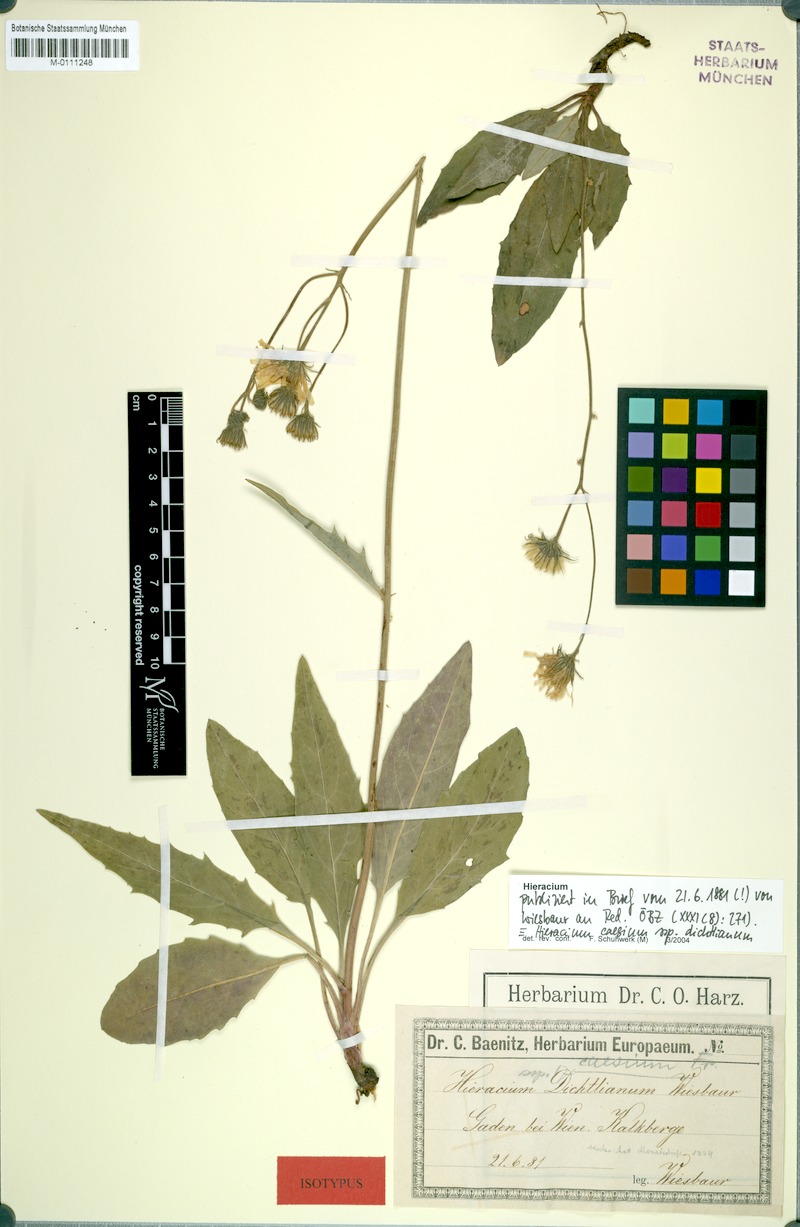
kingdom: Plantae
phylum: Tracheophyta
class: Magnoliopsida
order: Asterales
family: Asteraceae
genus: Hieracium
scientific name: Hieracium caesium
